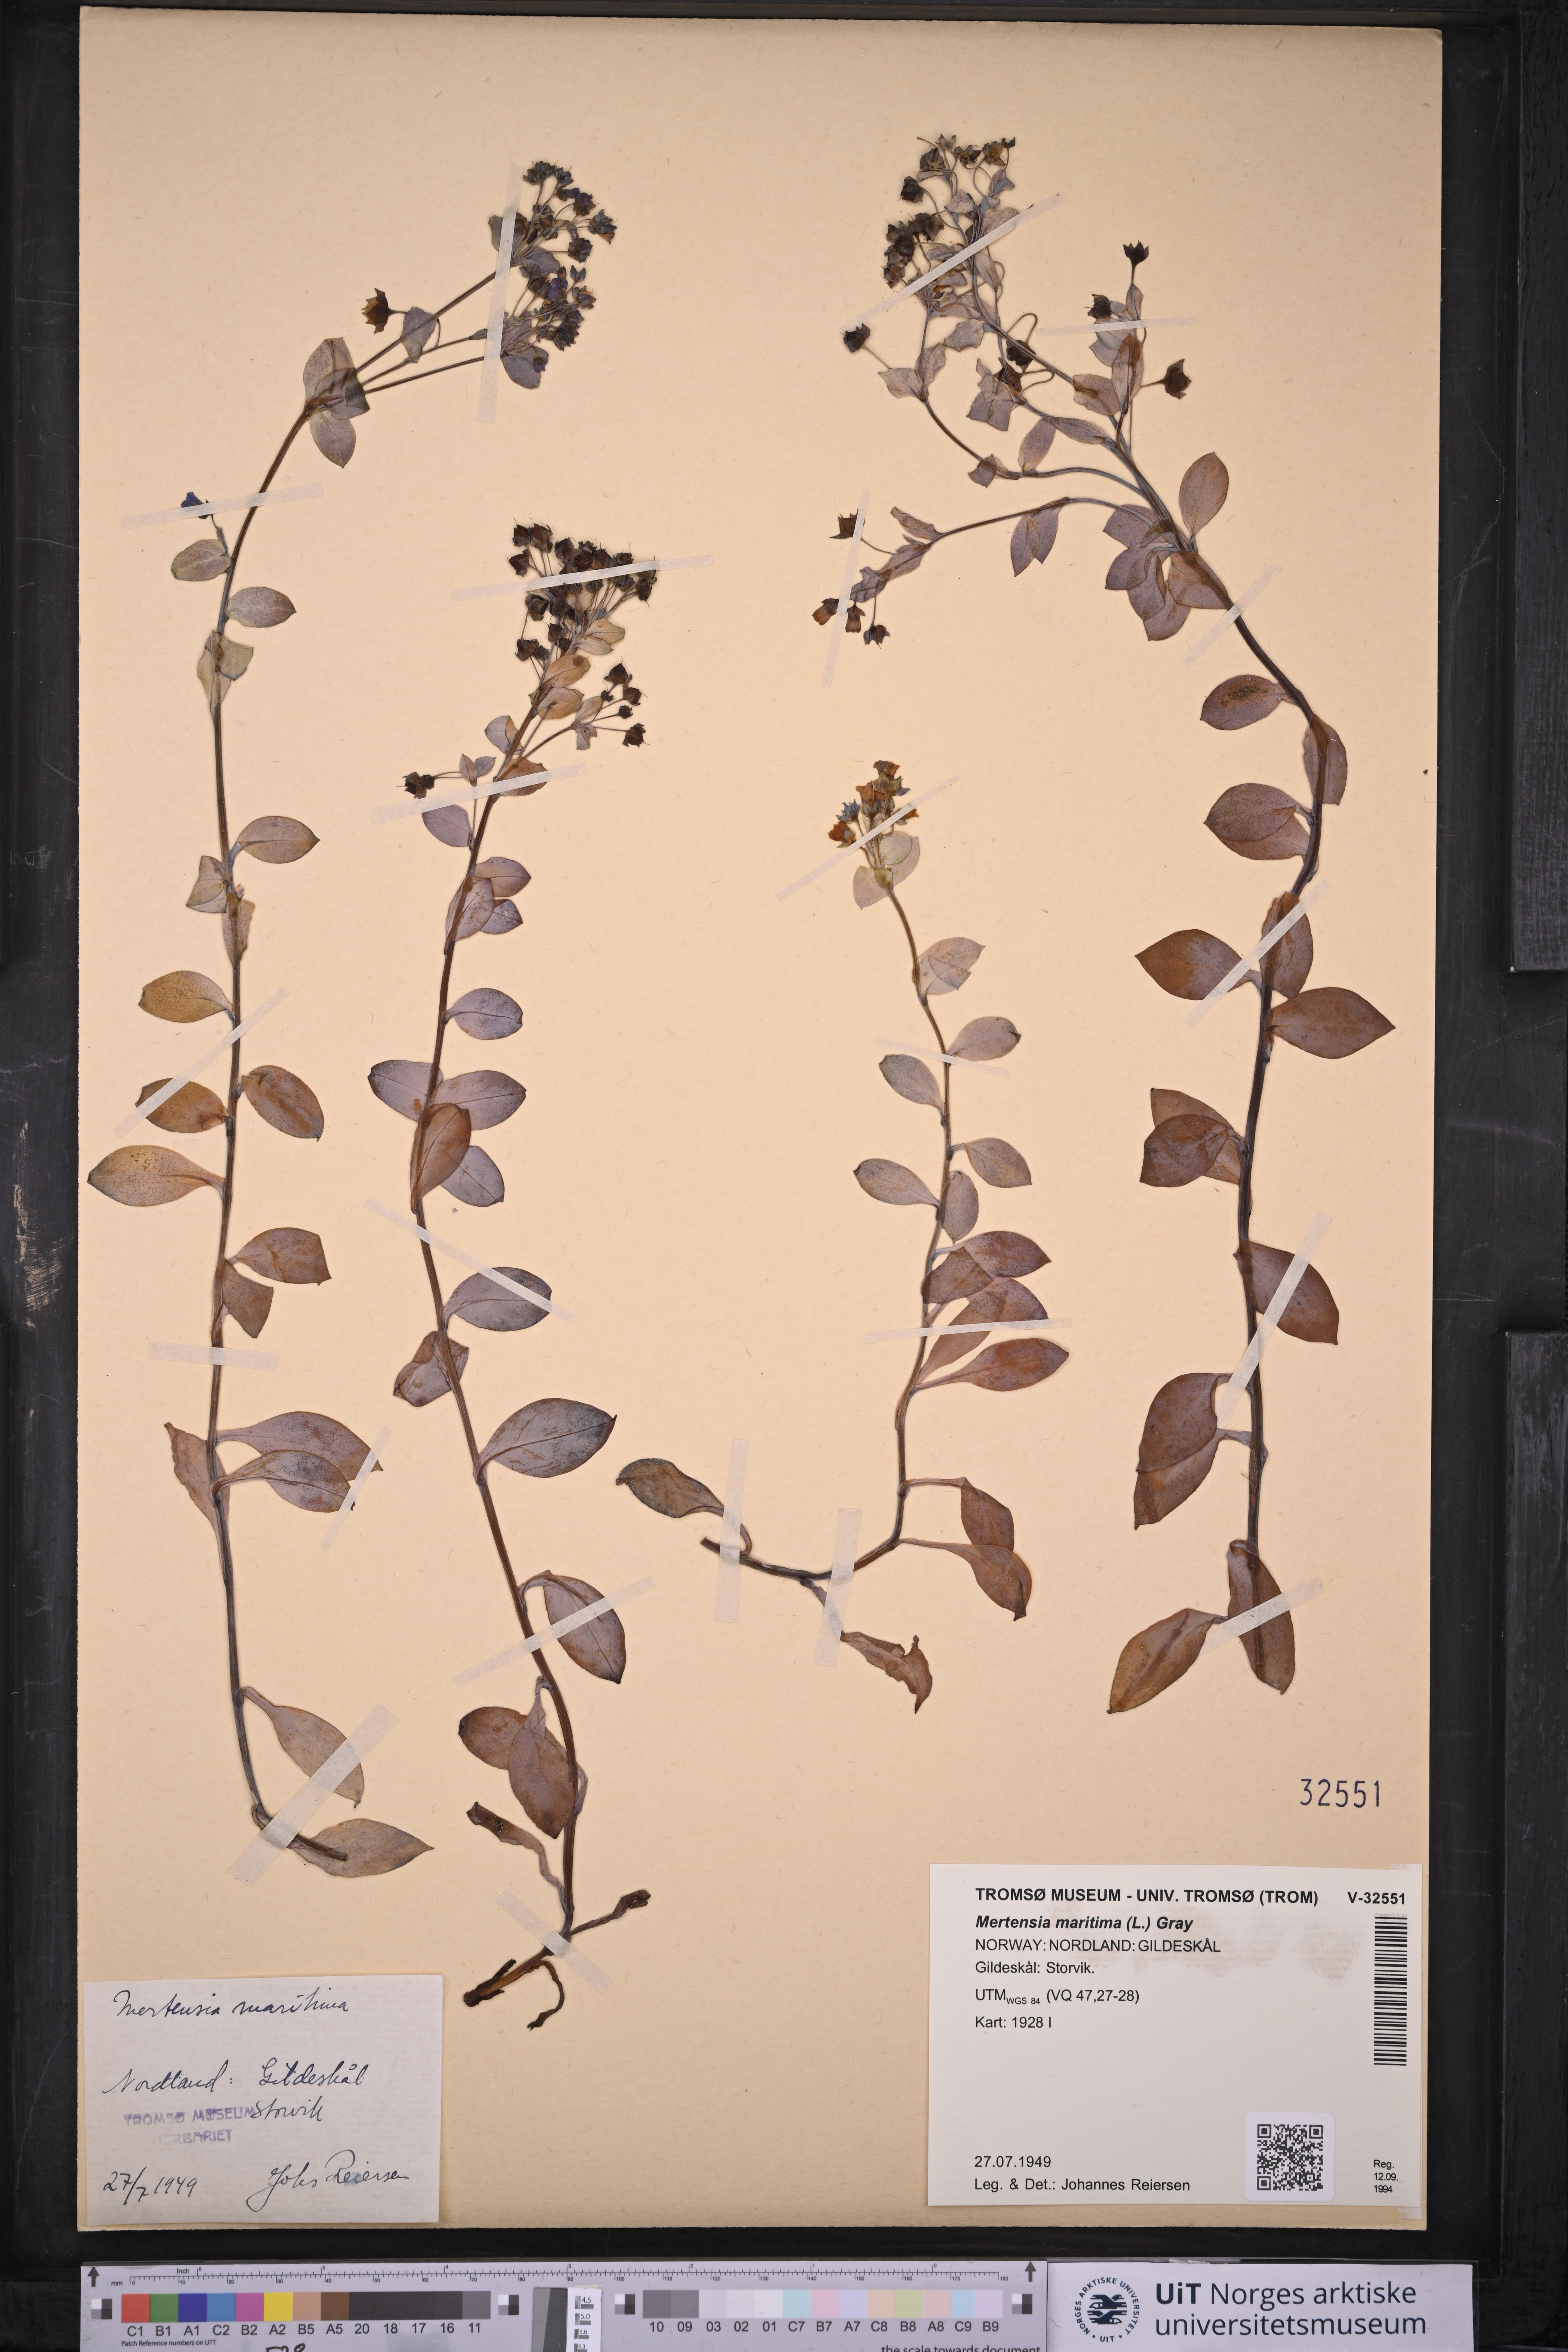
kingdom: Plantae
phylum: Tracheophyta
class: Magnoliopsida
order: Boraginales
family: Boraginaceae
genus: Mertensia
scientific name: Mertensia maritima
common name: Oysterplant
